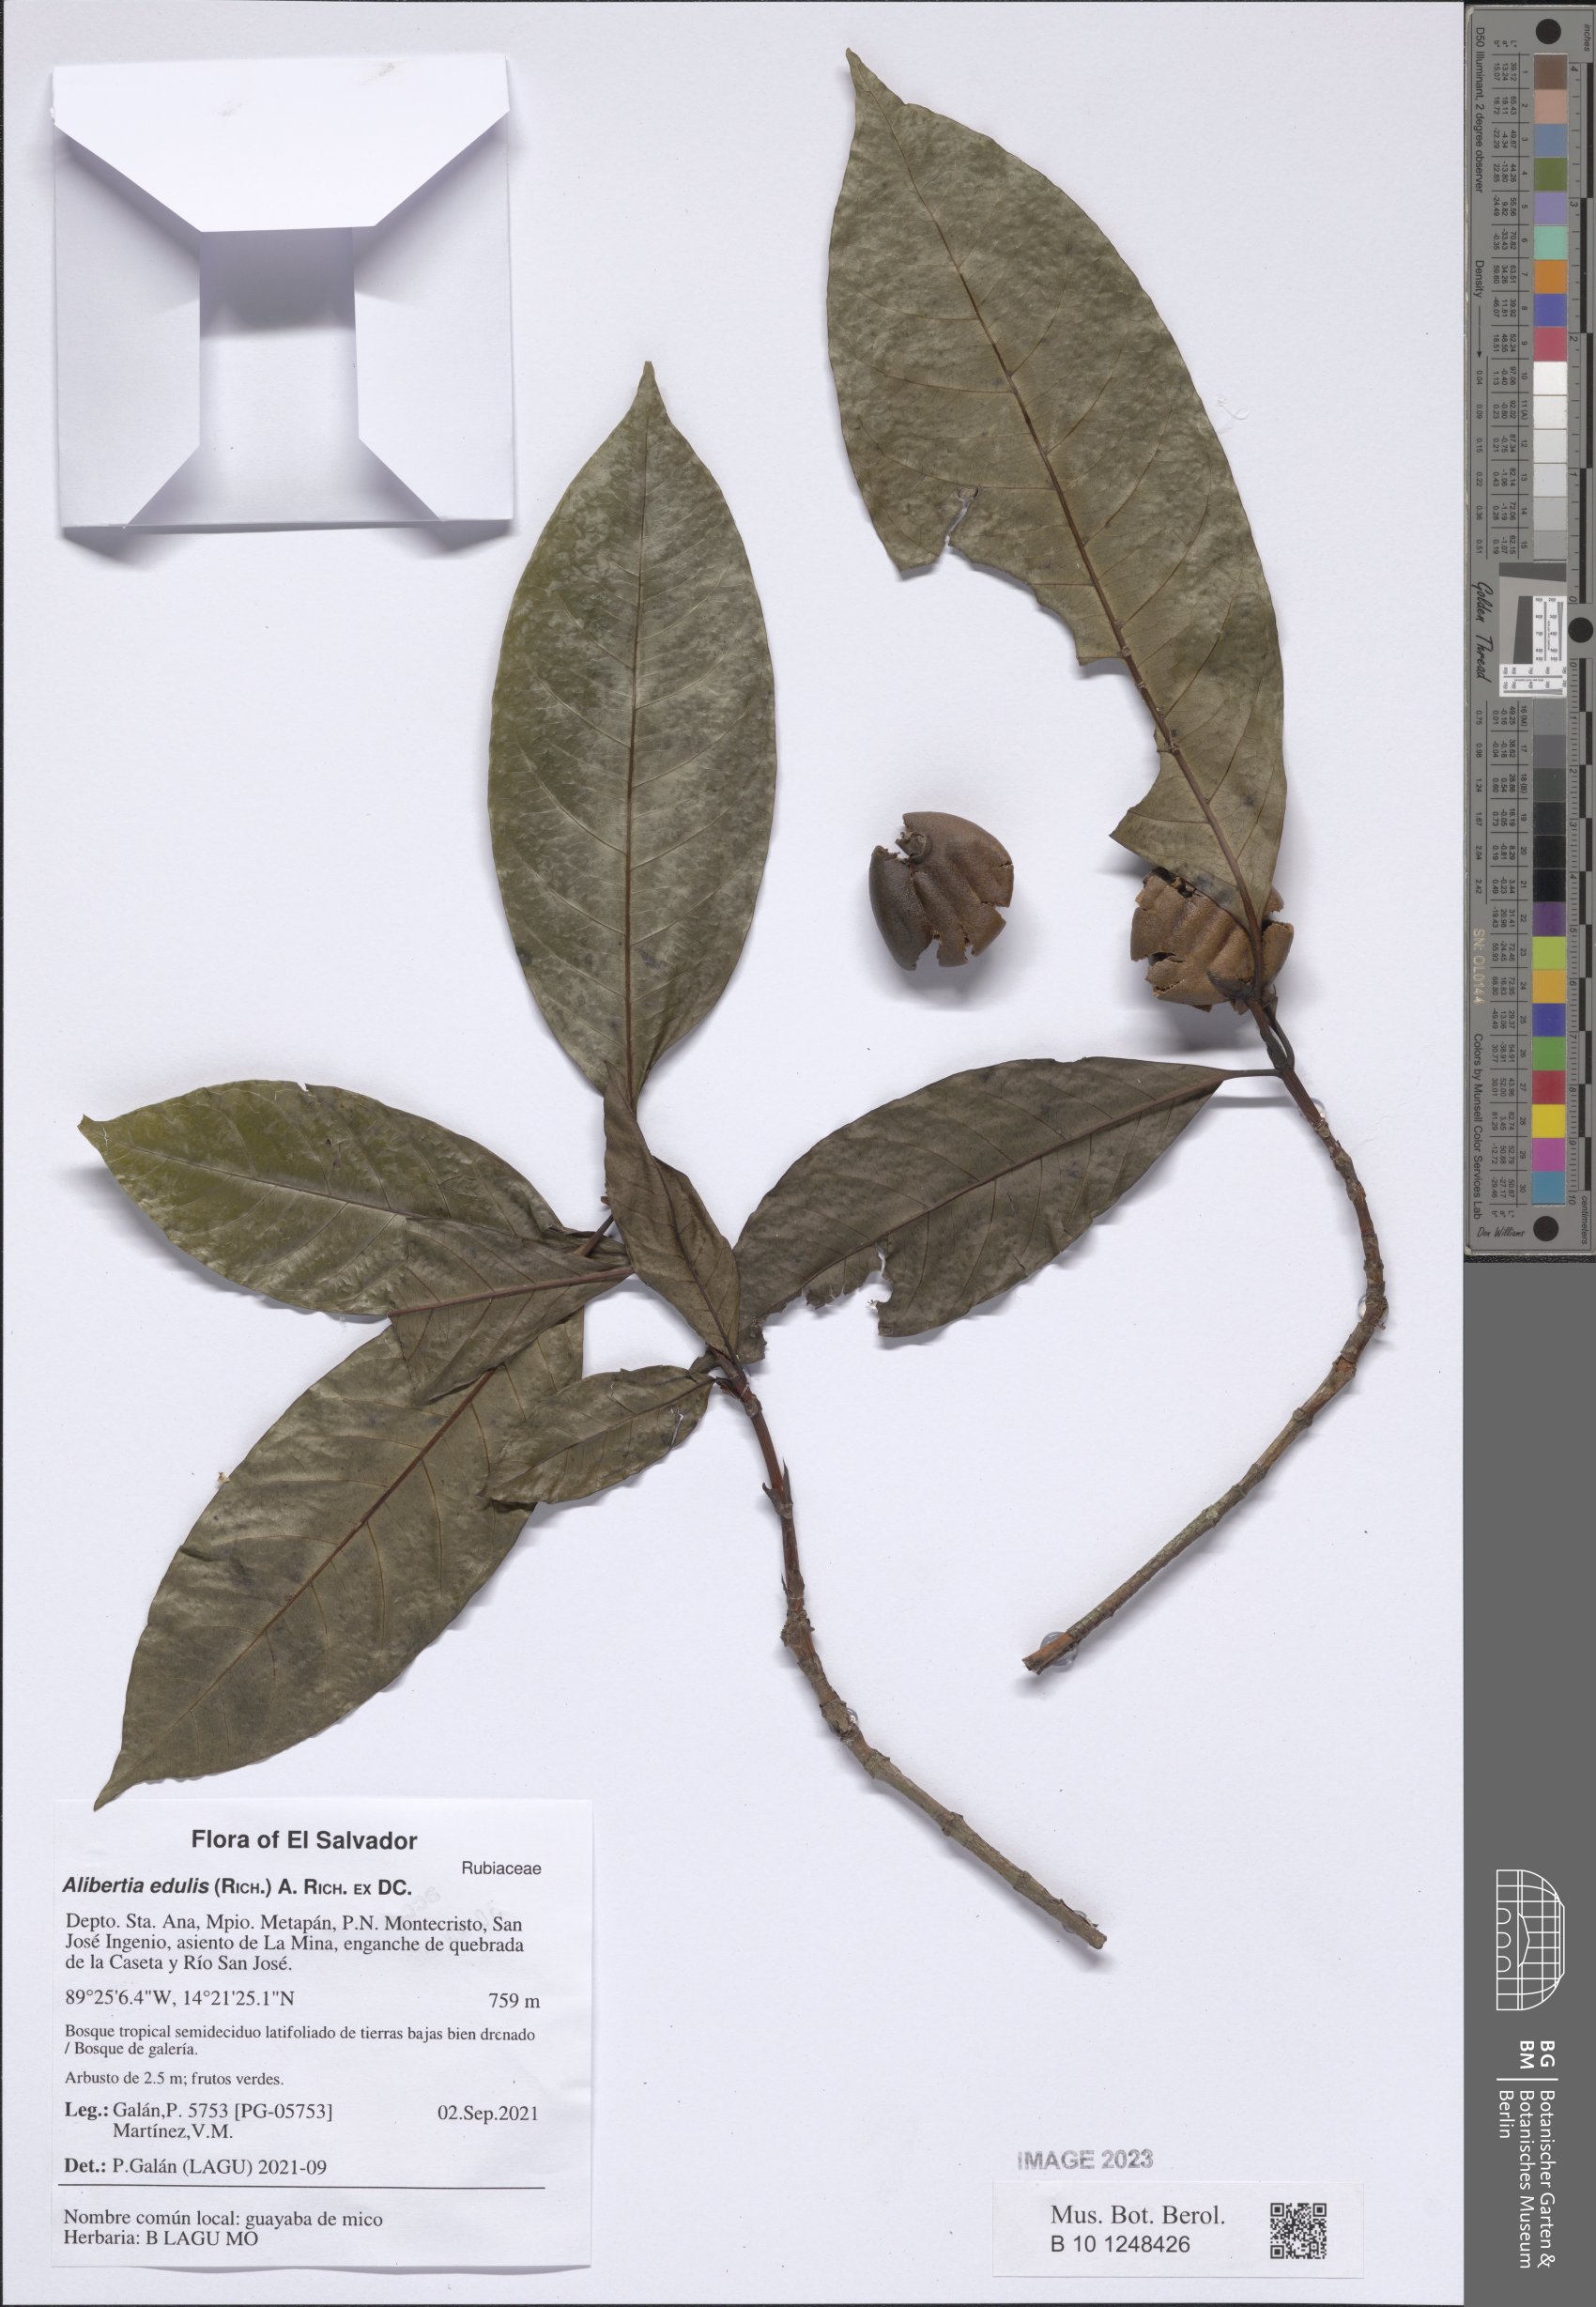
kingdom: Plantae
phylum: Tracheophyta
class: Magnoliopsida
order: Gentianales
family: Rubiaceae
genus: Alibertia
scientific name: Alibertia edulis
